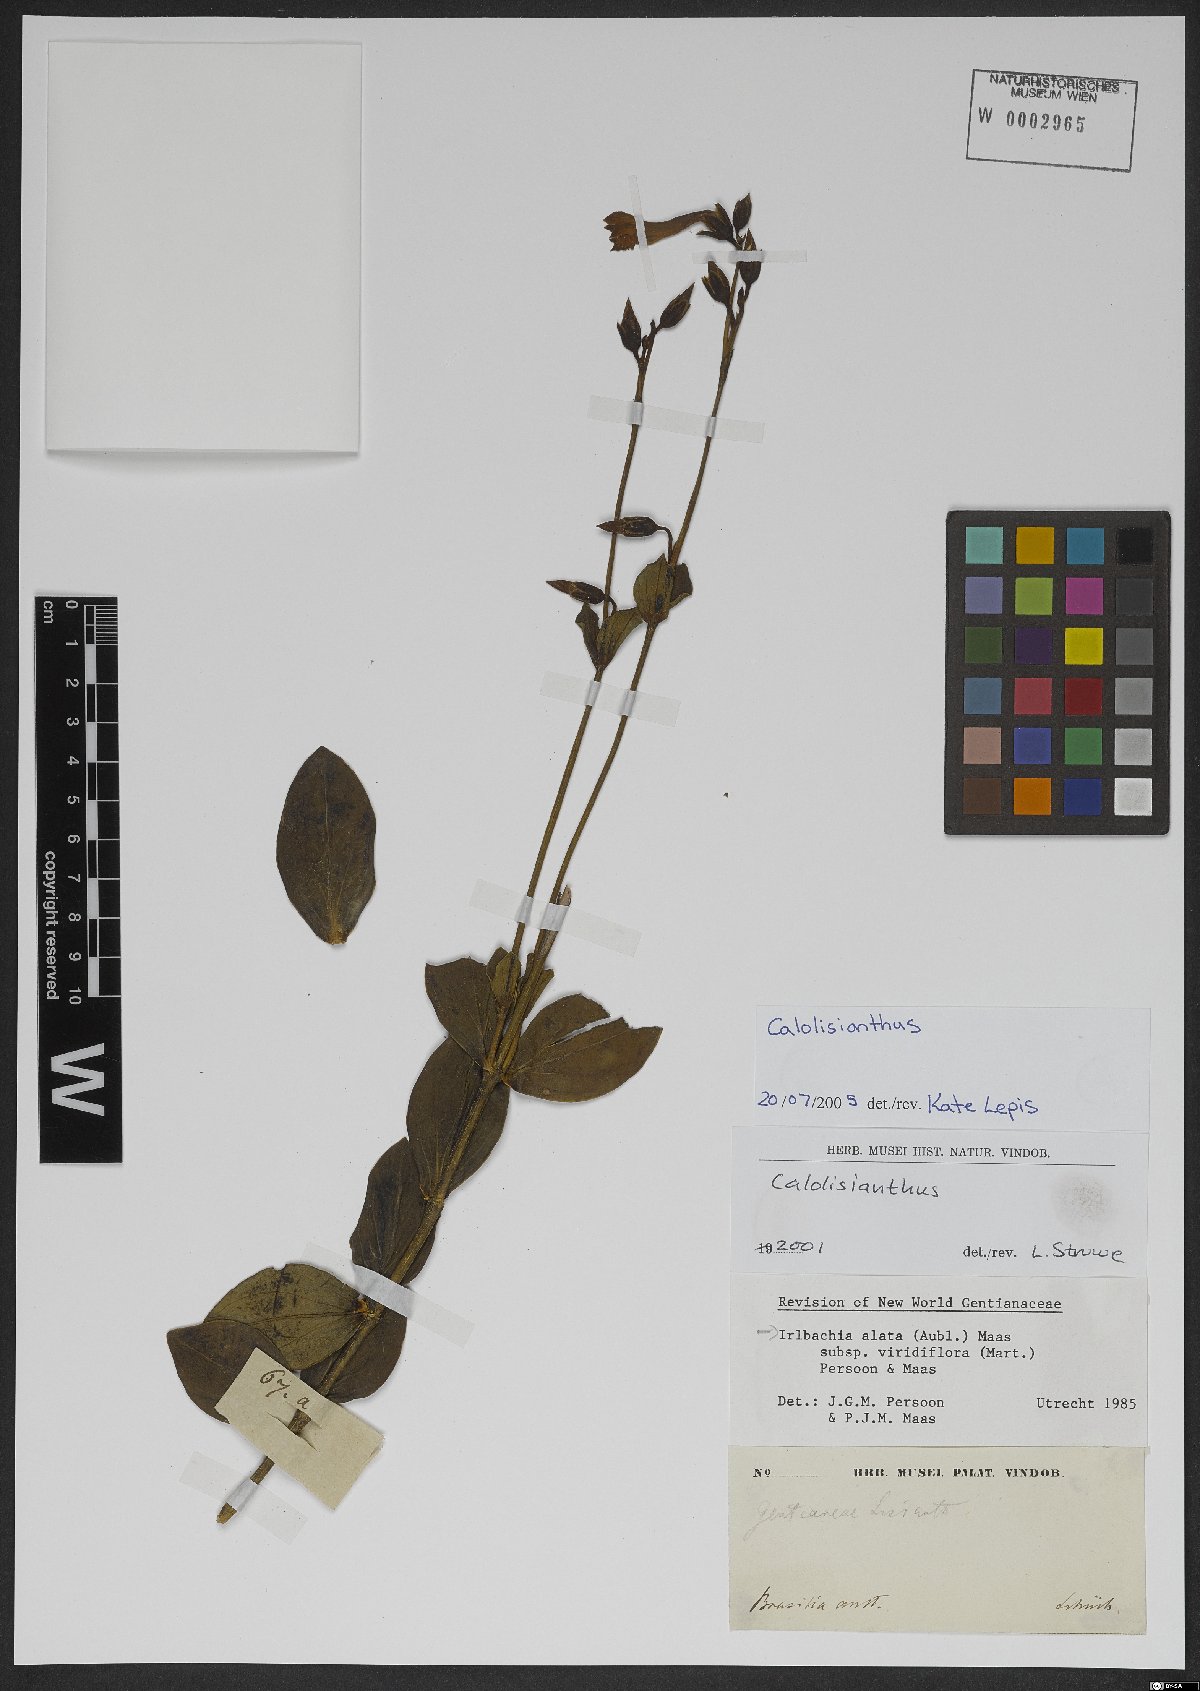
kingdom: Plantae
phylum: Tracheophyta
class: Magnoliopsida
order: Gentianales
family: Gentianaceae
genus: Chelonanthus
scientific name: Chelonanthus viridiflorus
